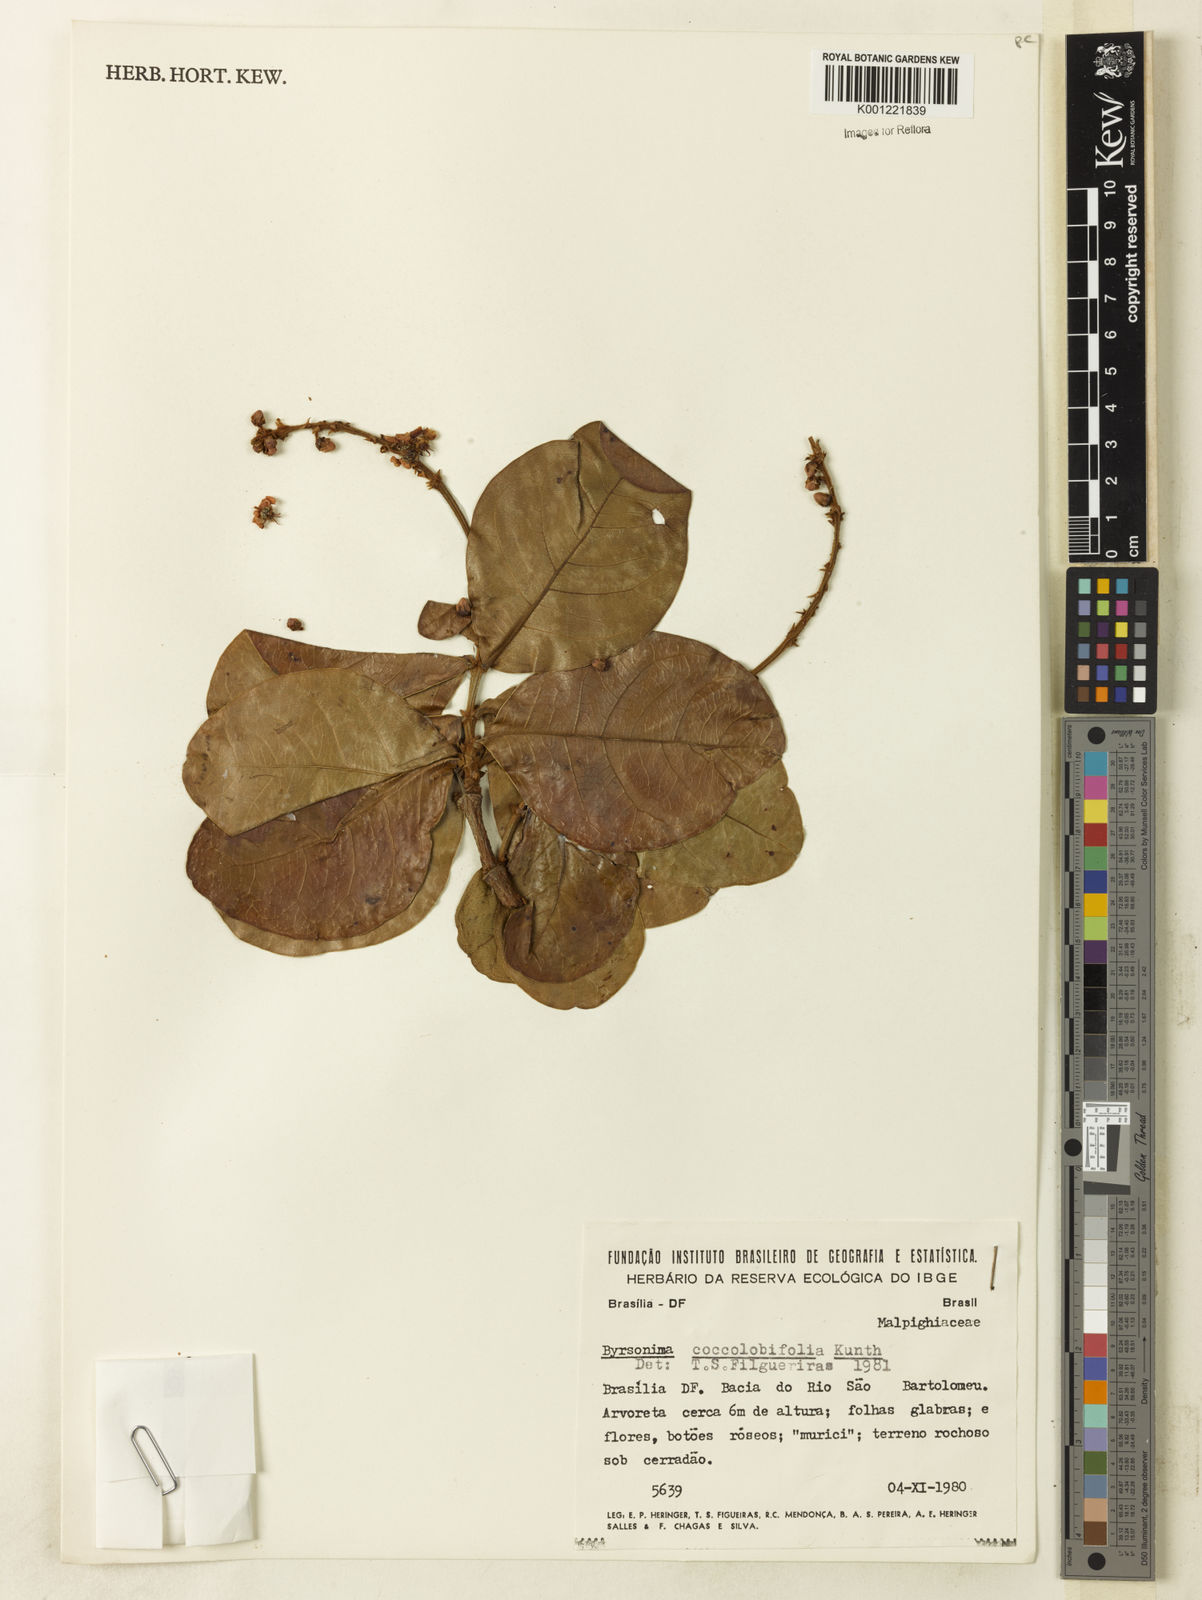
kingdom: Plantae
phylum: Tracheophyta
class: Magnoliopsida
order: Malpighiales
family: Malpighiaceae
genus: Byrsonima
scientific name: Byrsonima coccolobifolia
